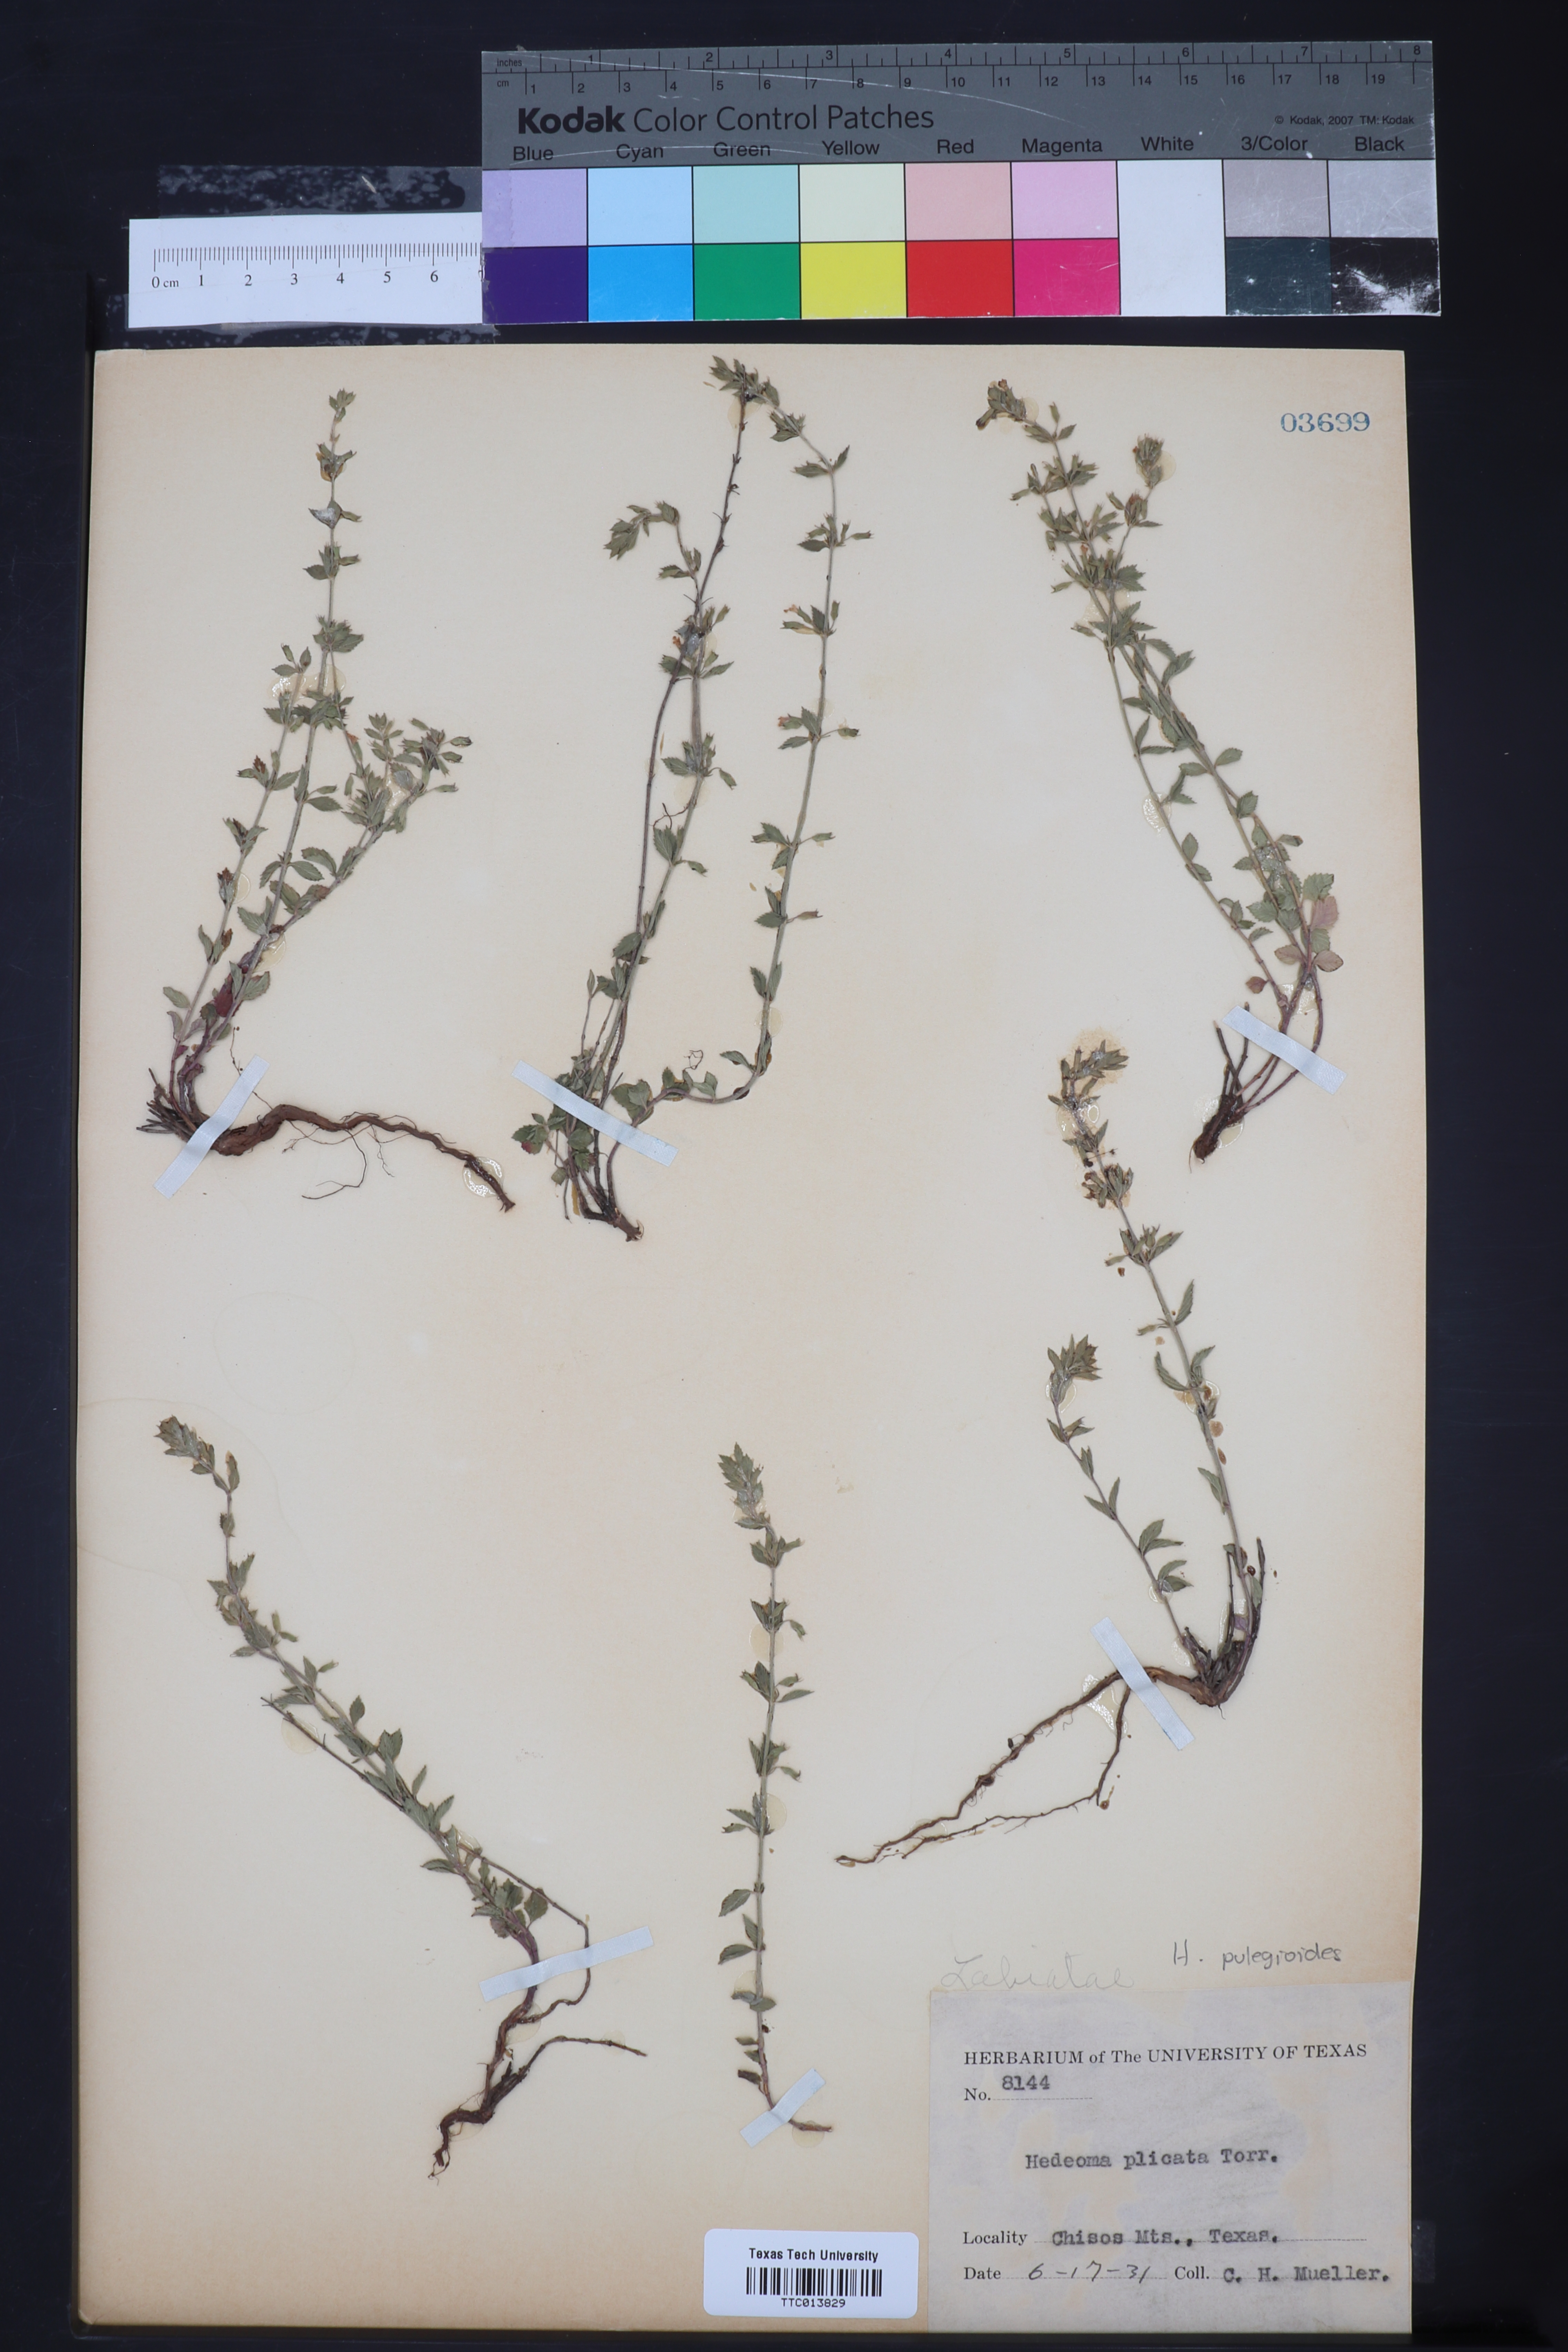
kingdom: Plantae
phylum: Tracheophyta
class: Magnoliopsida
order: Lamiales
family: Lamiaceae
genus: Hedeoma
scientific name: Hedeoma plicata
